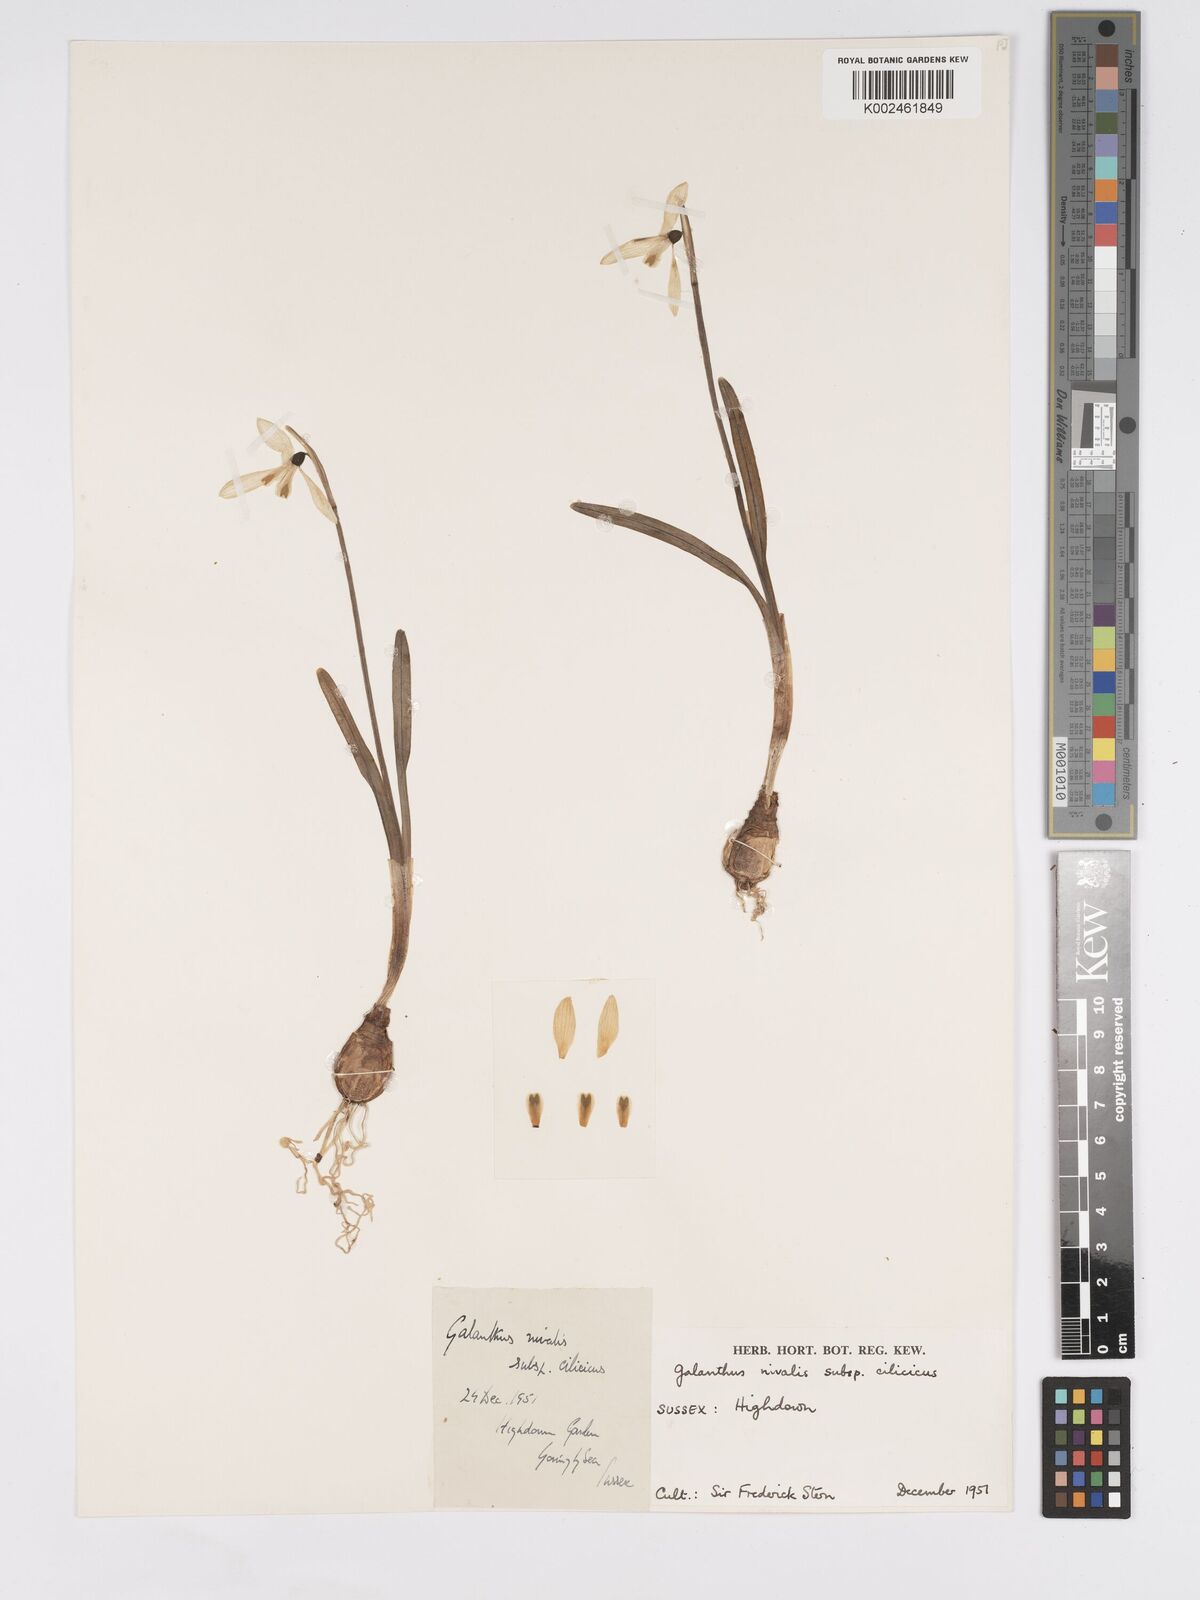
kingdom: Plantae
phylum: Tracheophyta
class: Liliopsida
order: Asparagales
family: Amaryllidaceae
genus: Galanthus
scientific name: Galanthus cilicicus
